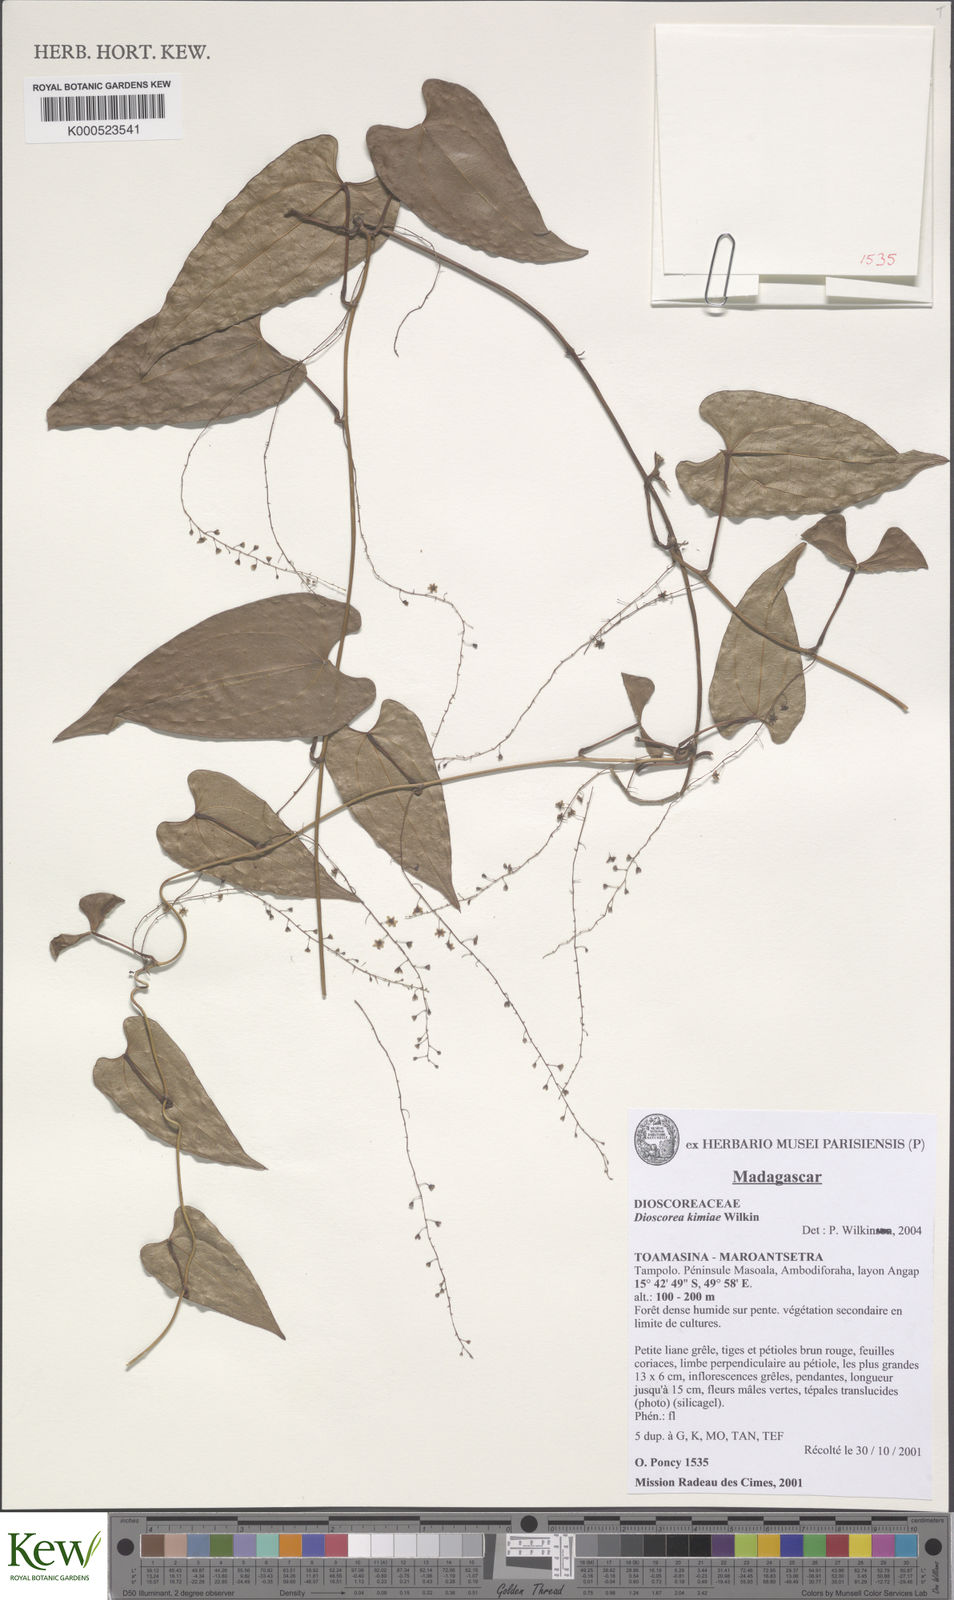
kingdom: Plantae
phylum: Tracheophyta
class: Liliopsida
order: Dioscoreales
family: Dioscoreaceae
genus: Dioscorea
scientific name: Dioscorea kimiae
